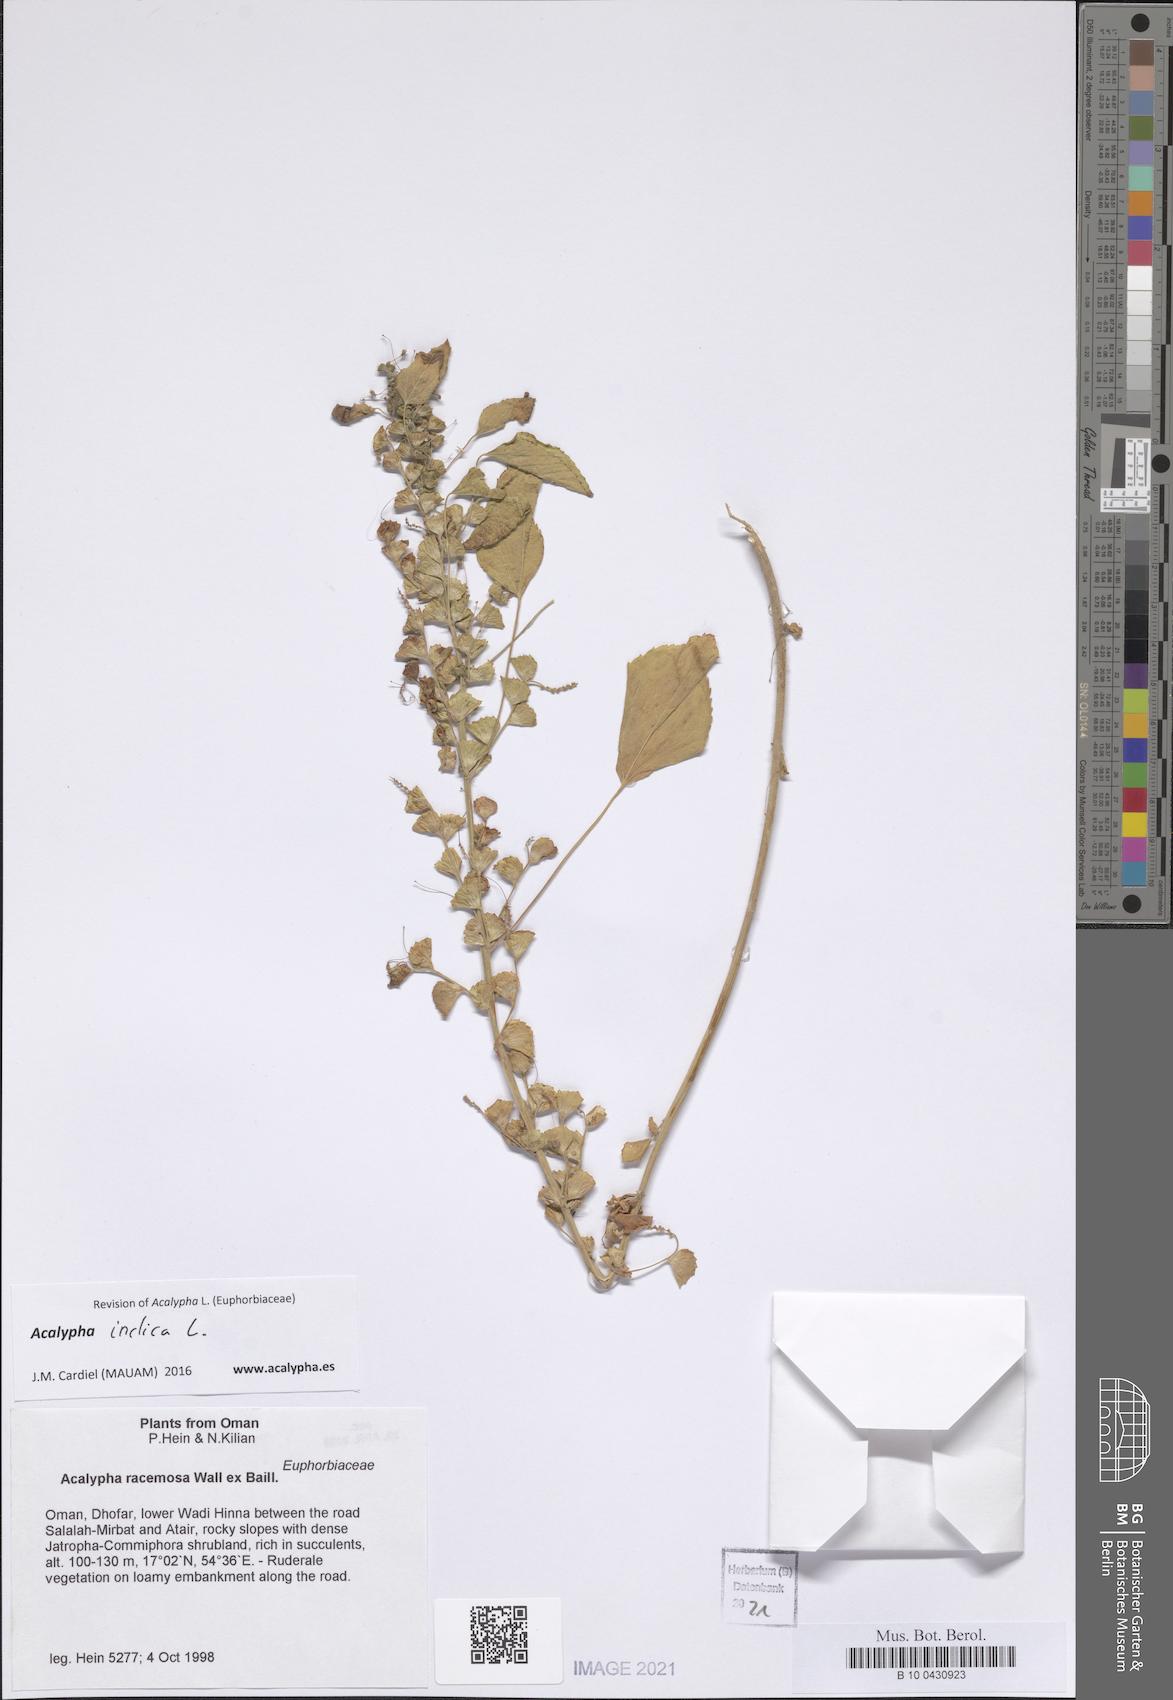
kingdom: Plantae
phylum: Tracheophyta
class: Magnoliopsida
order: Malpighiales
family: Euphorbiaceae
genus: Acalypha
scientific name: Acalypha indica
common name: Indian acalypha
